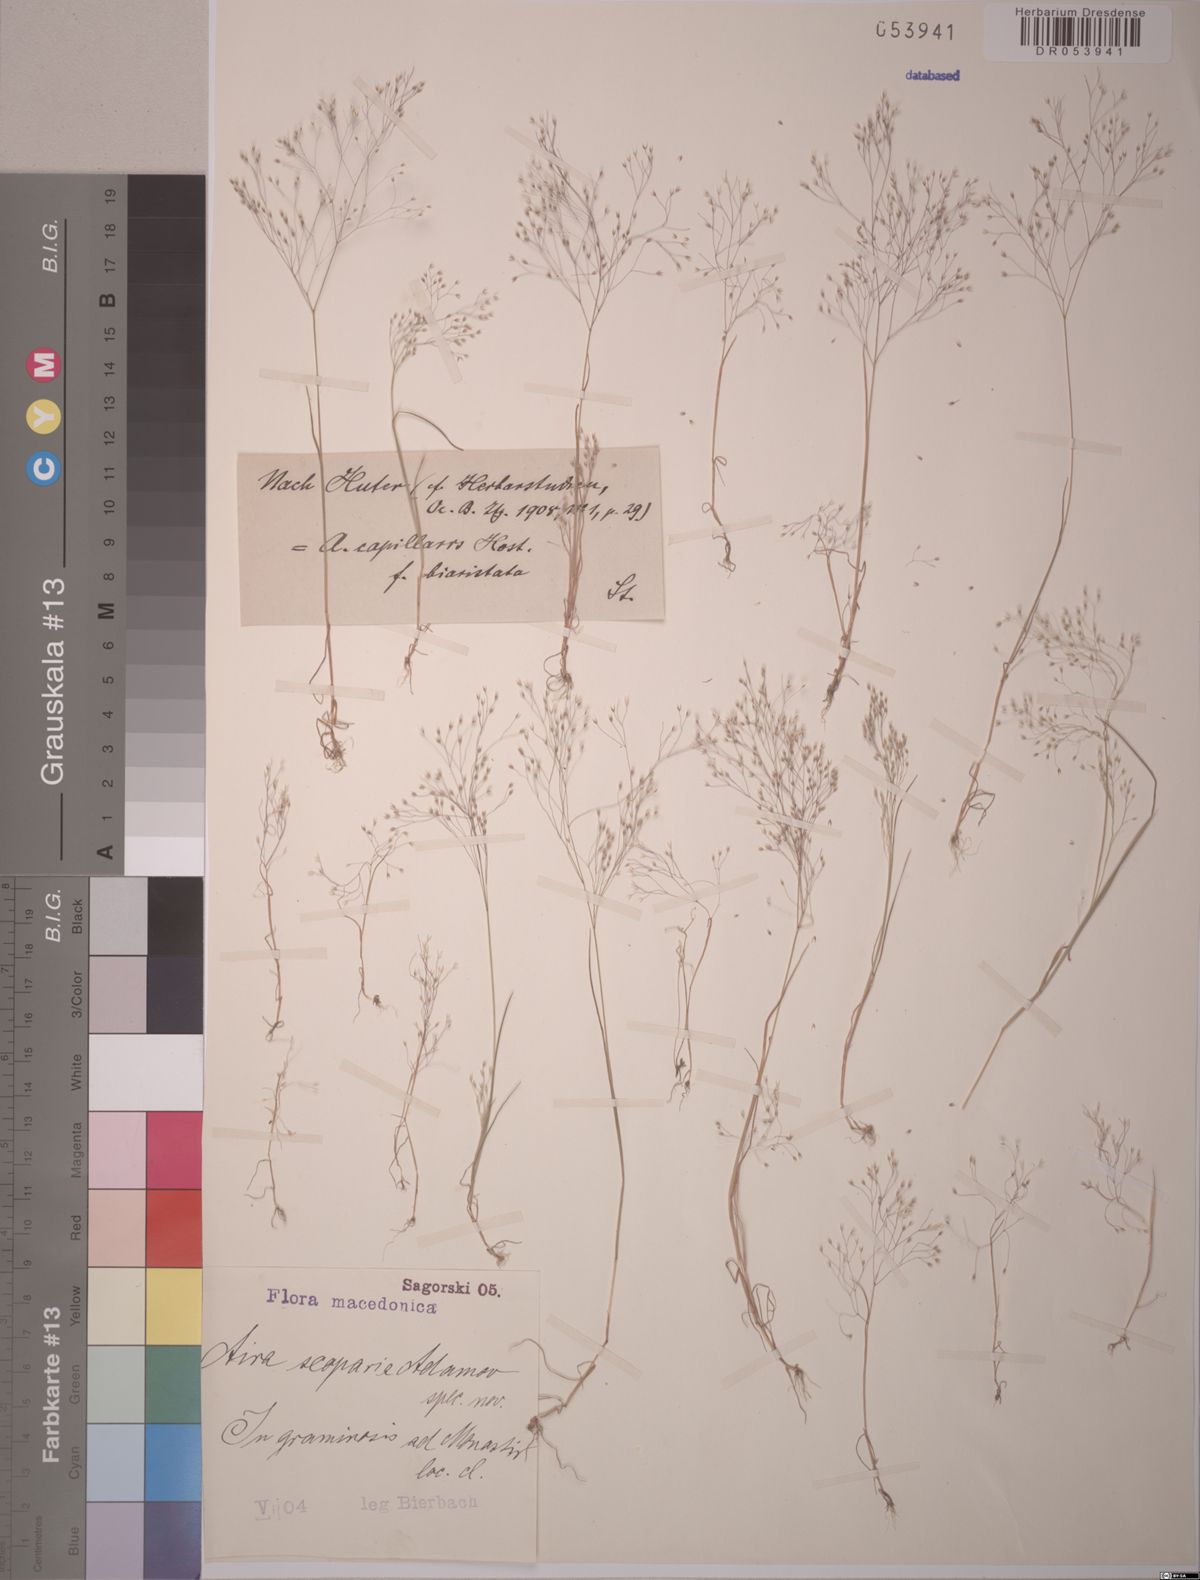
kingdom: Plantae
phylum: Tracheophyta
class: Liliopsida
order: Poales
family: Poaceae
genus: Aira
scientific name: Aira scoparia
